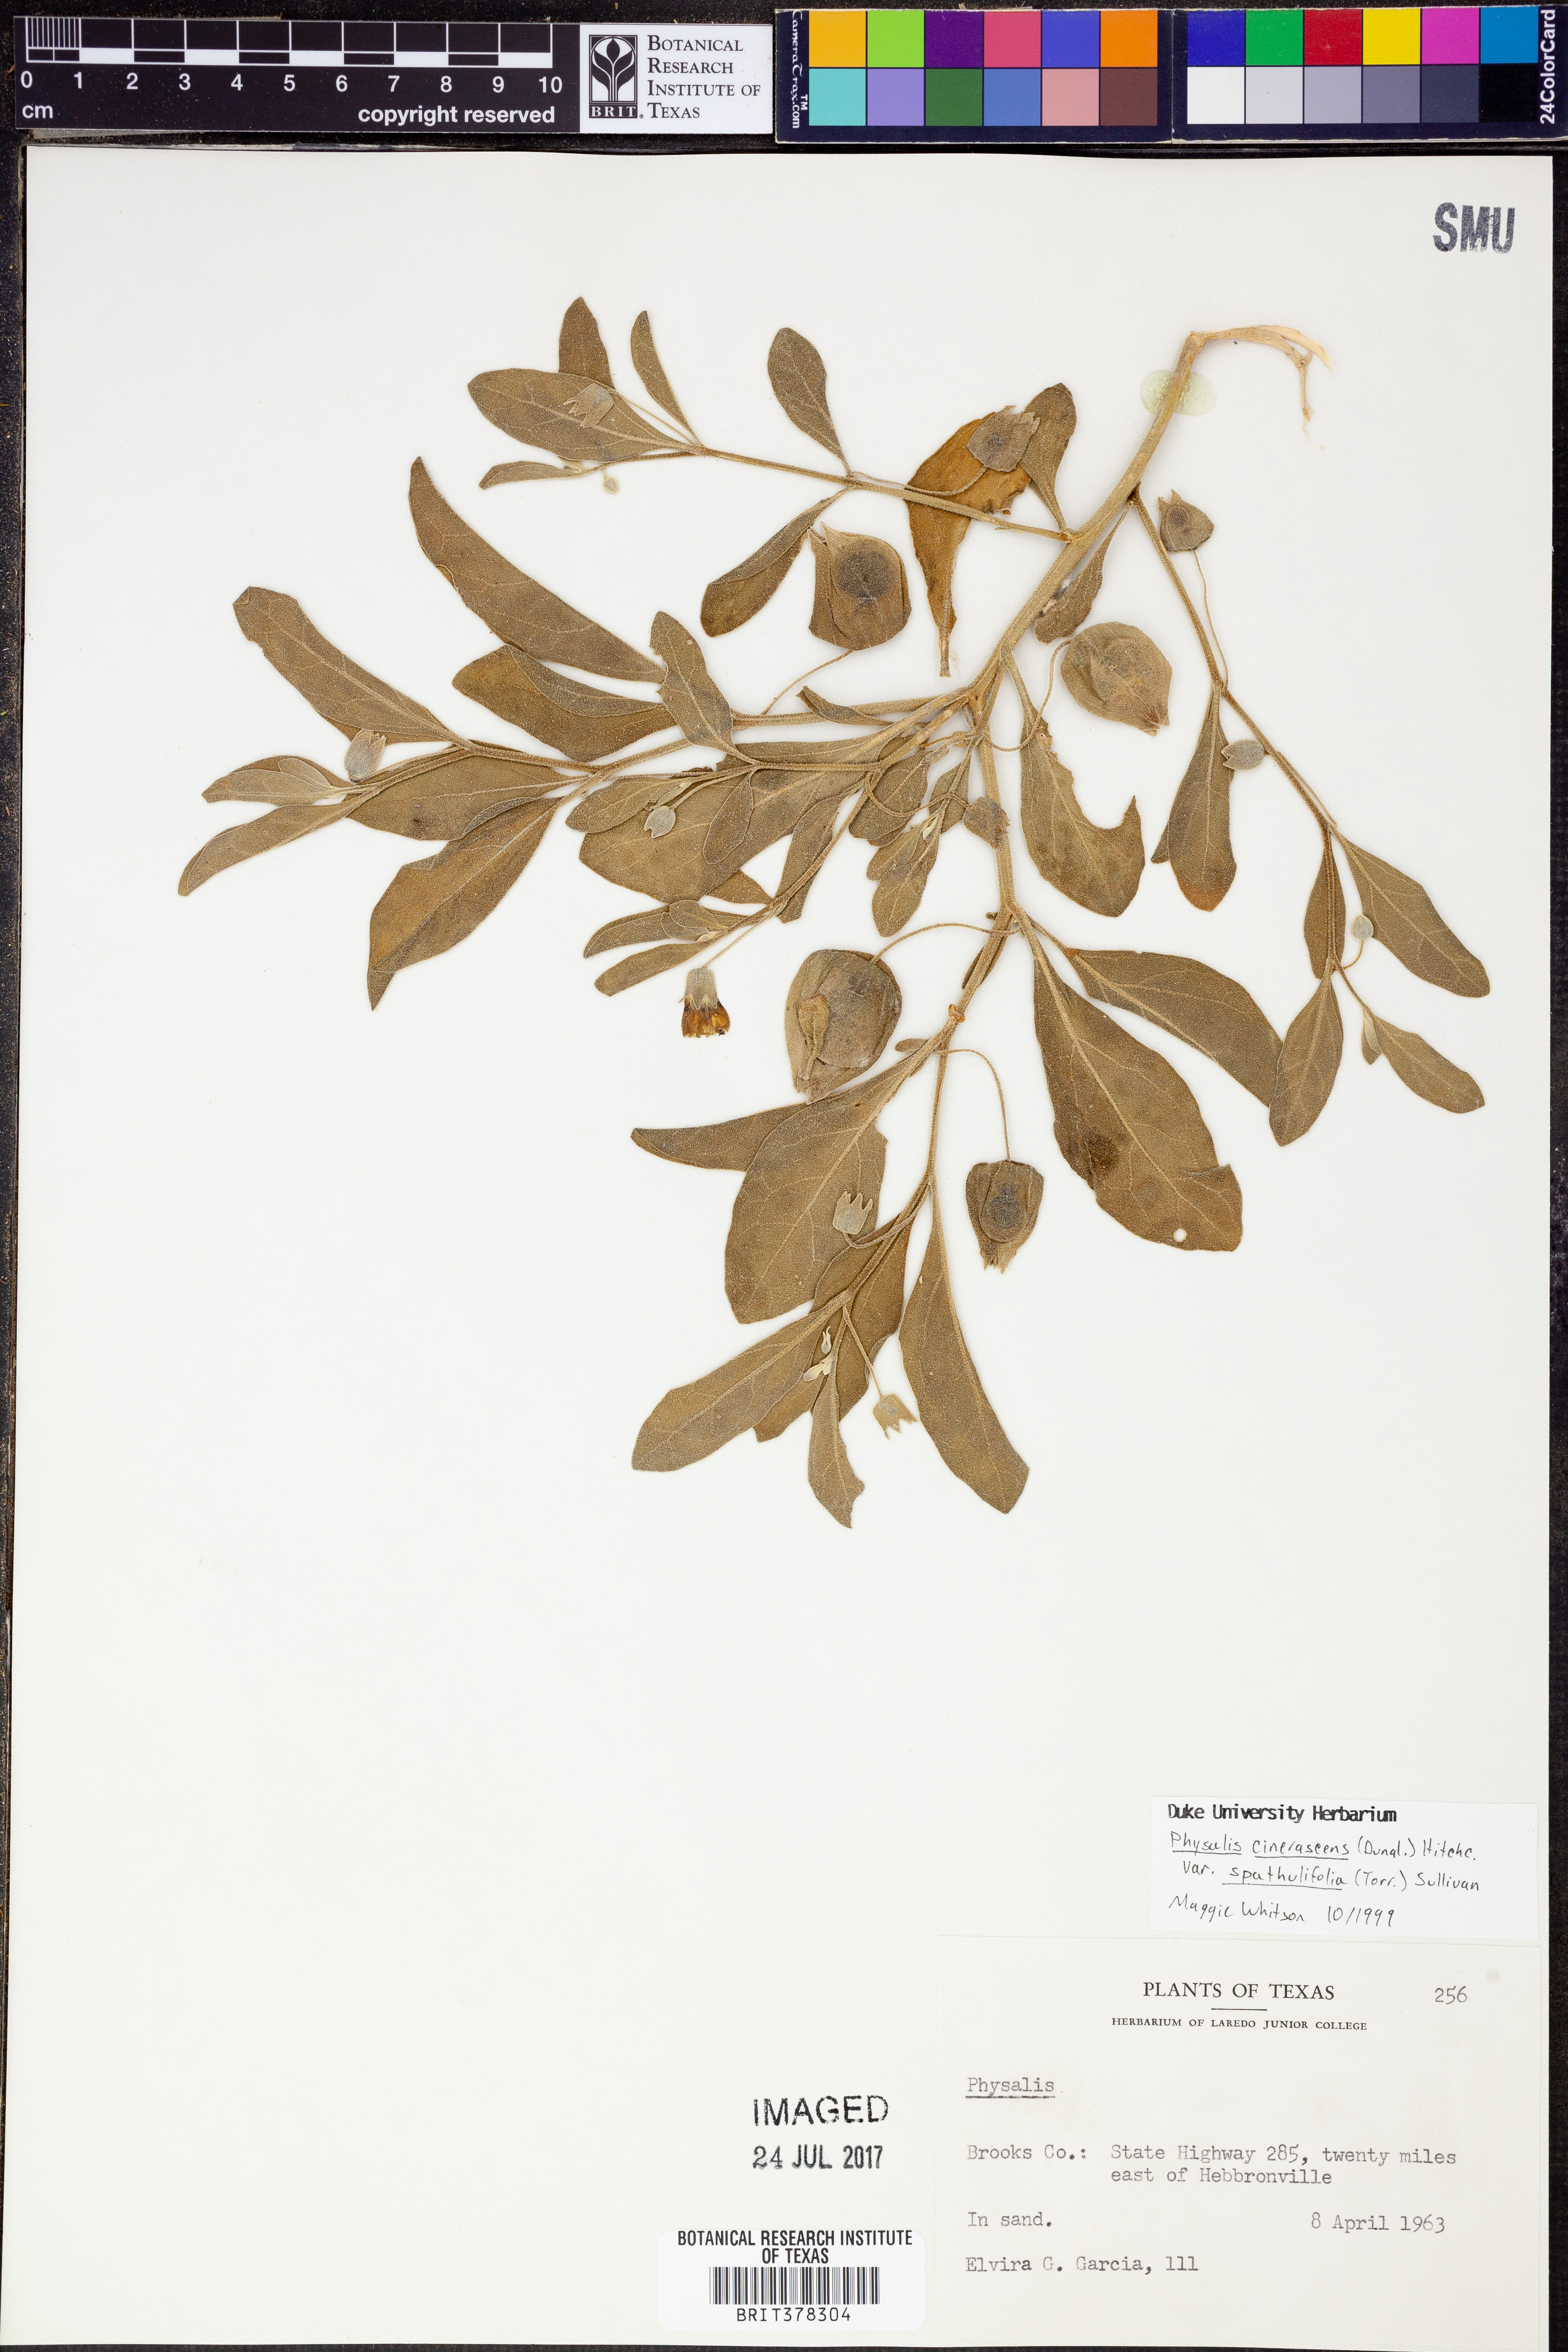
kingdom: Plantae
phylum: Tracheophyta
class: Magnoliopsida
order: Solanales
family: Solanaceae
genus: Physalis
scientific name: Physalis cinerascens
